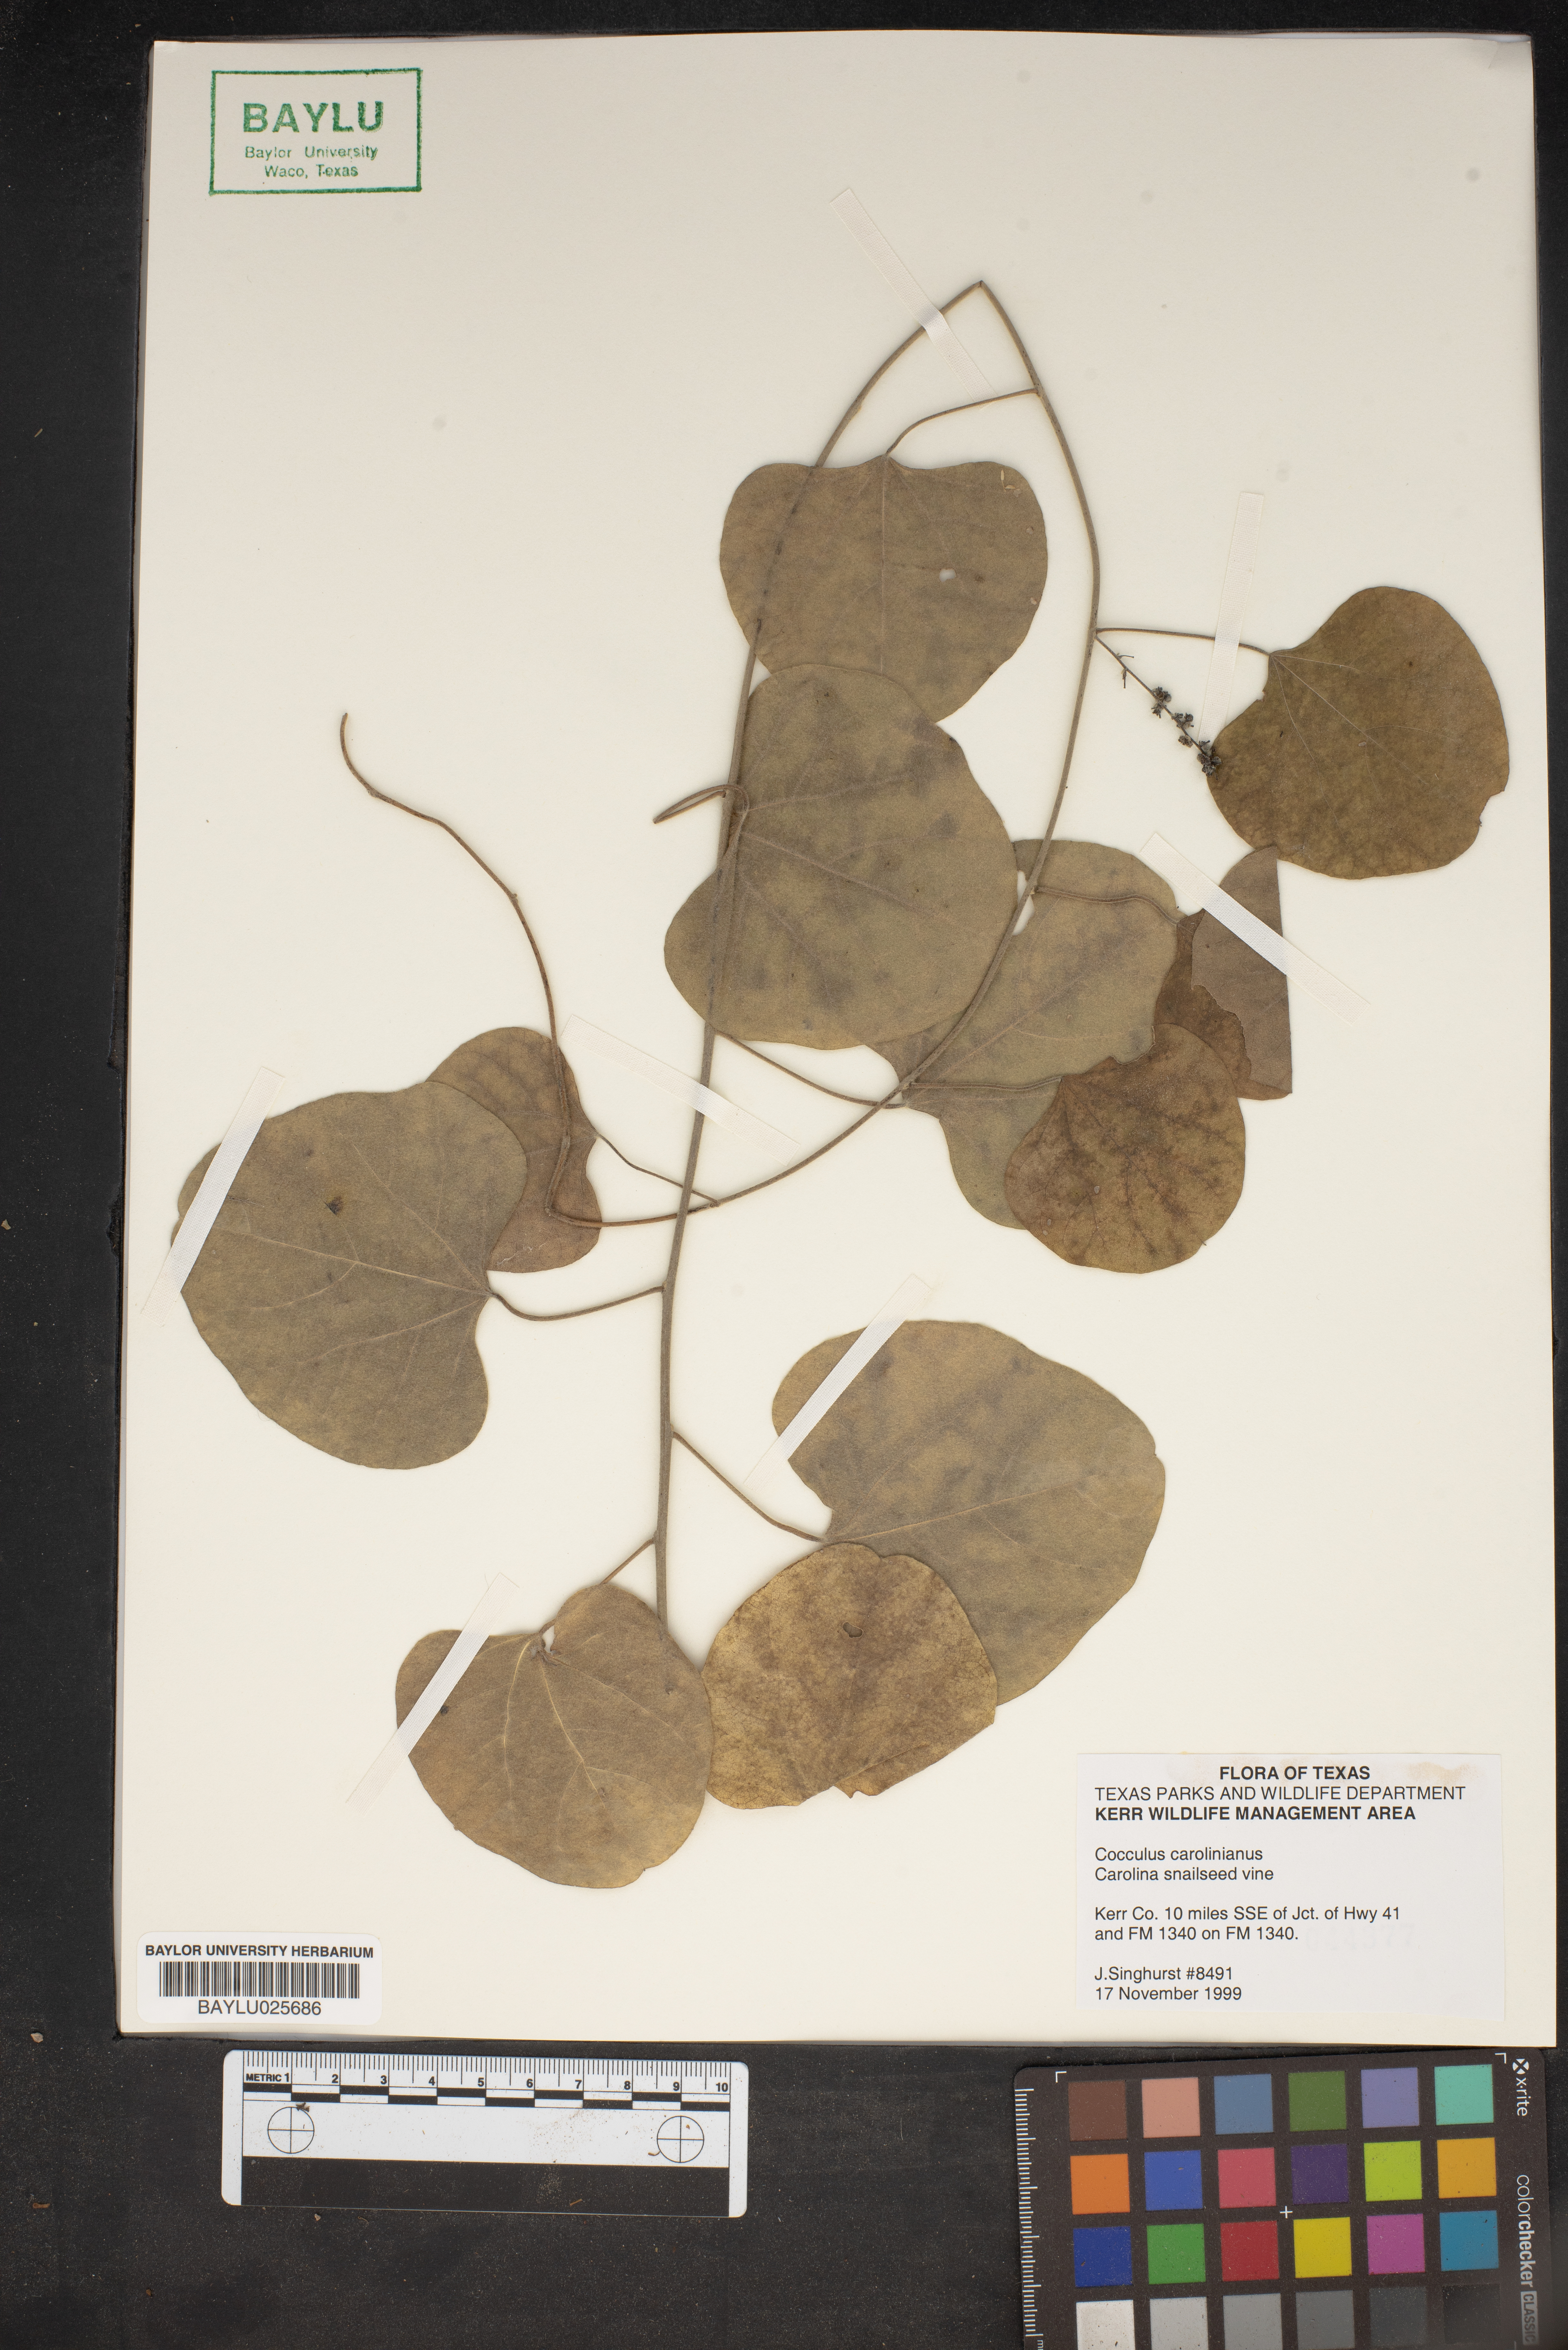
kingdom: Plantae
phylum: Tracheophyta
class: Magnoliopsida
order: Ranunculales
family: Menispermaceae
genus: Cocculus
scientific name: Cocculus carolinus
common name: Carolina moonseed
